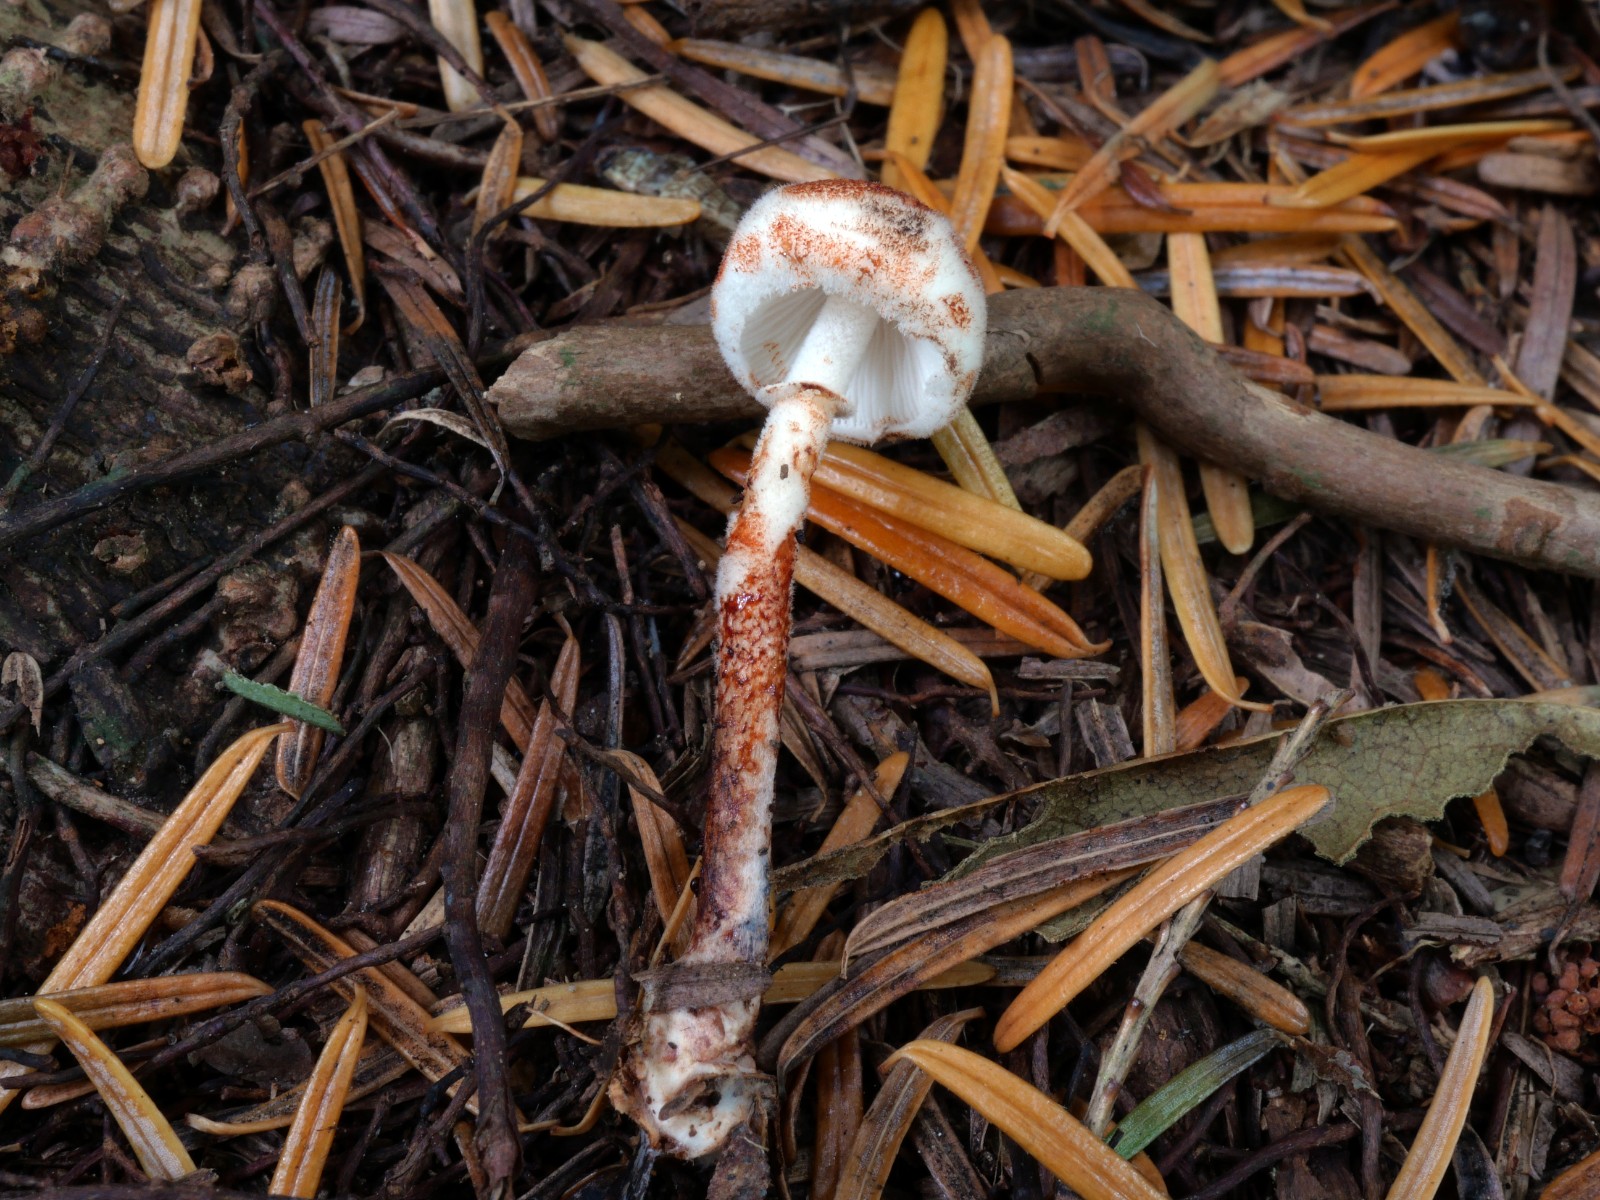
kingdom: Fungi
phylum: Basidiomycota
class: Agaricomycetes
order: Agaricales
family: Agaricaceae
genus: Leucoagaricus
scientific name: Leucoagaricus georginae
